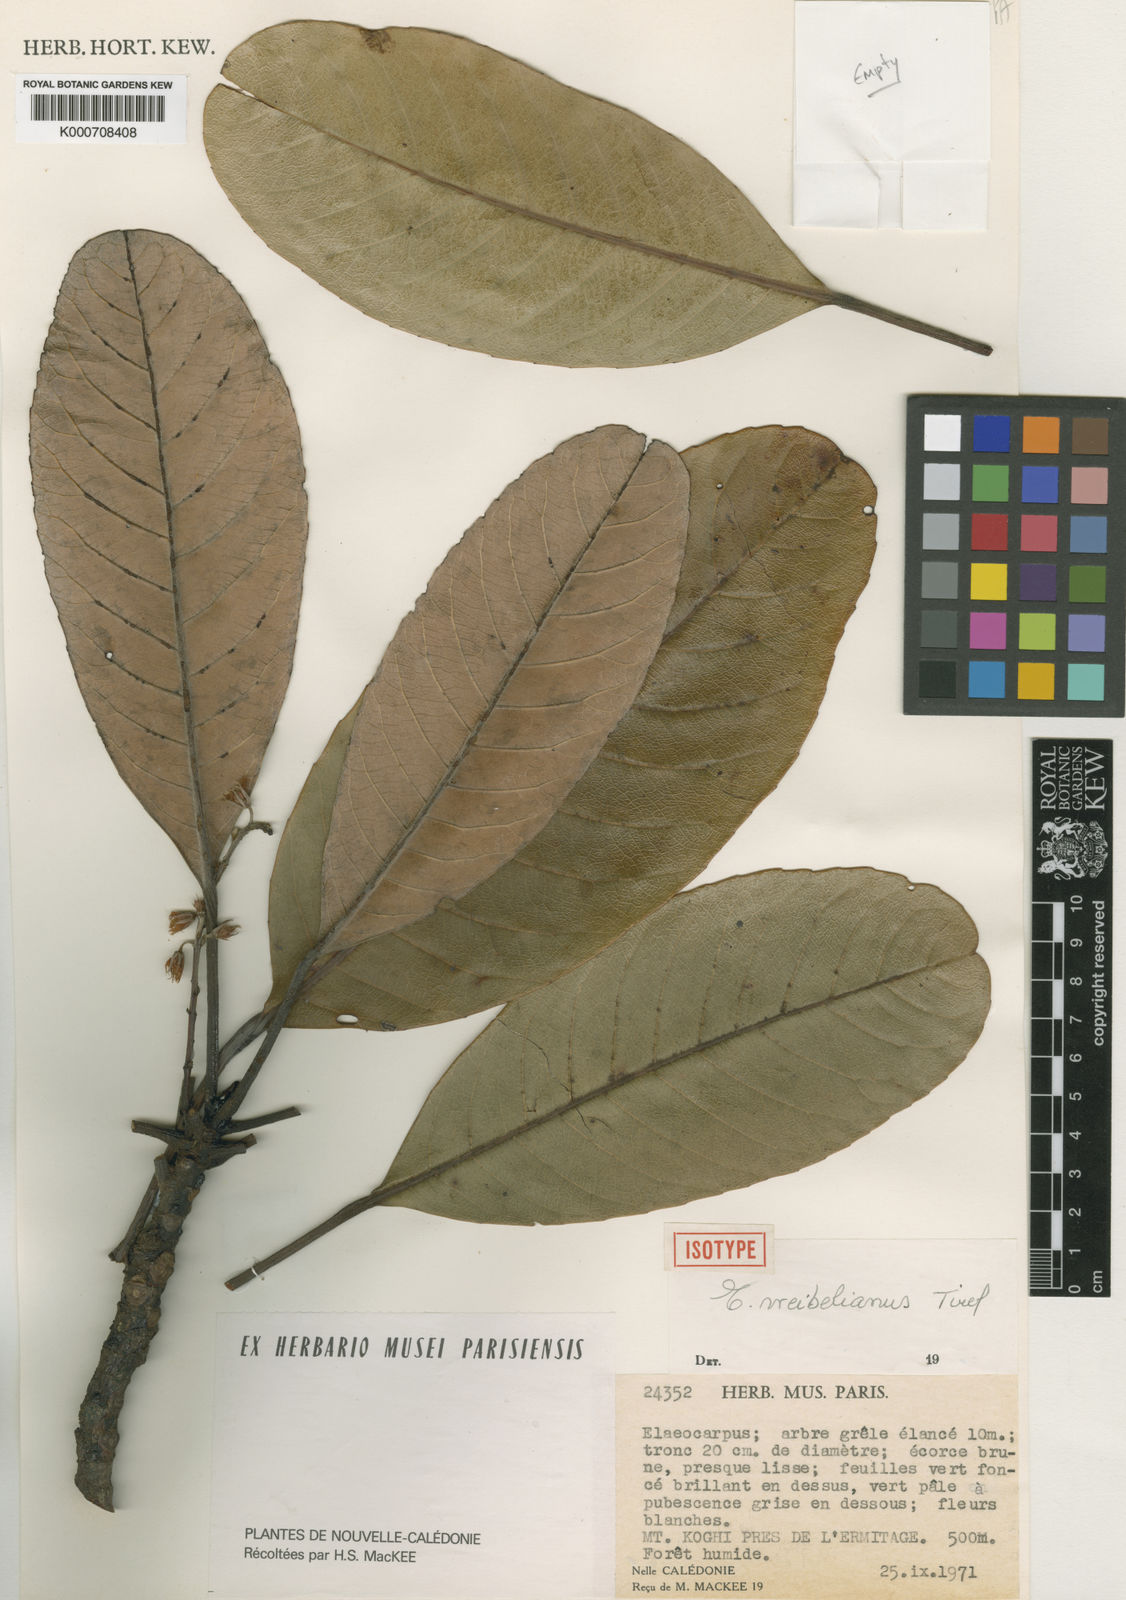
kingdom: Plantae
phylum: Tracheophyta
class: Magnoliopsida
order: Oxalidales
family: Elaeocarpaceae
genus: Elaeocarpus
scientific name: Elaeocarpus weibelianus
